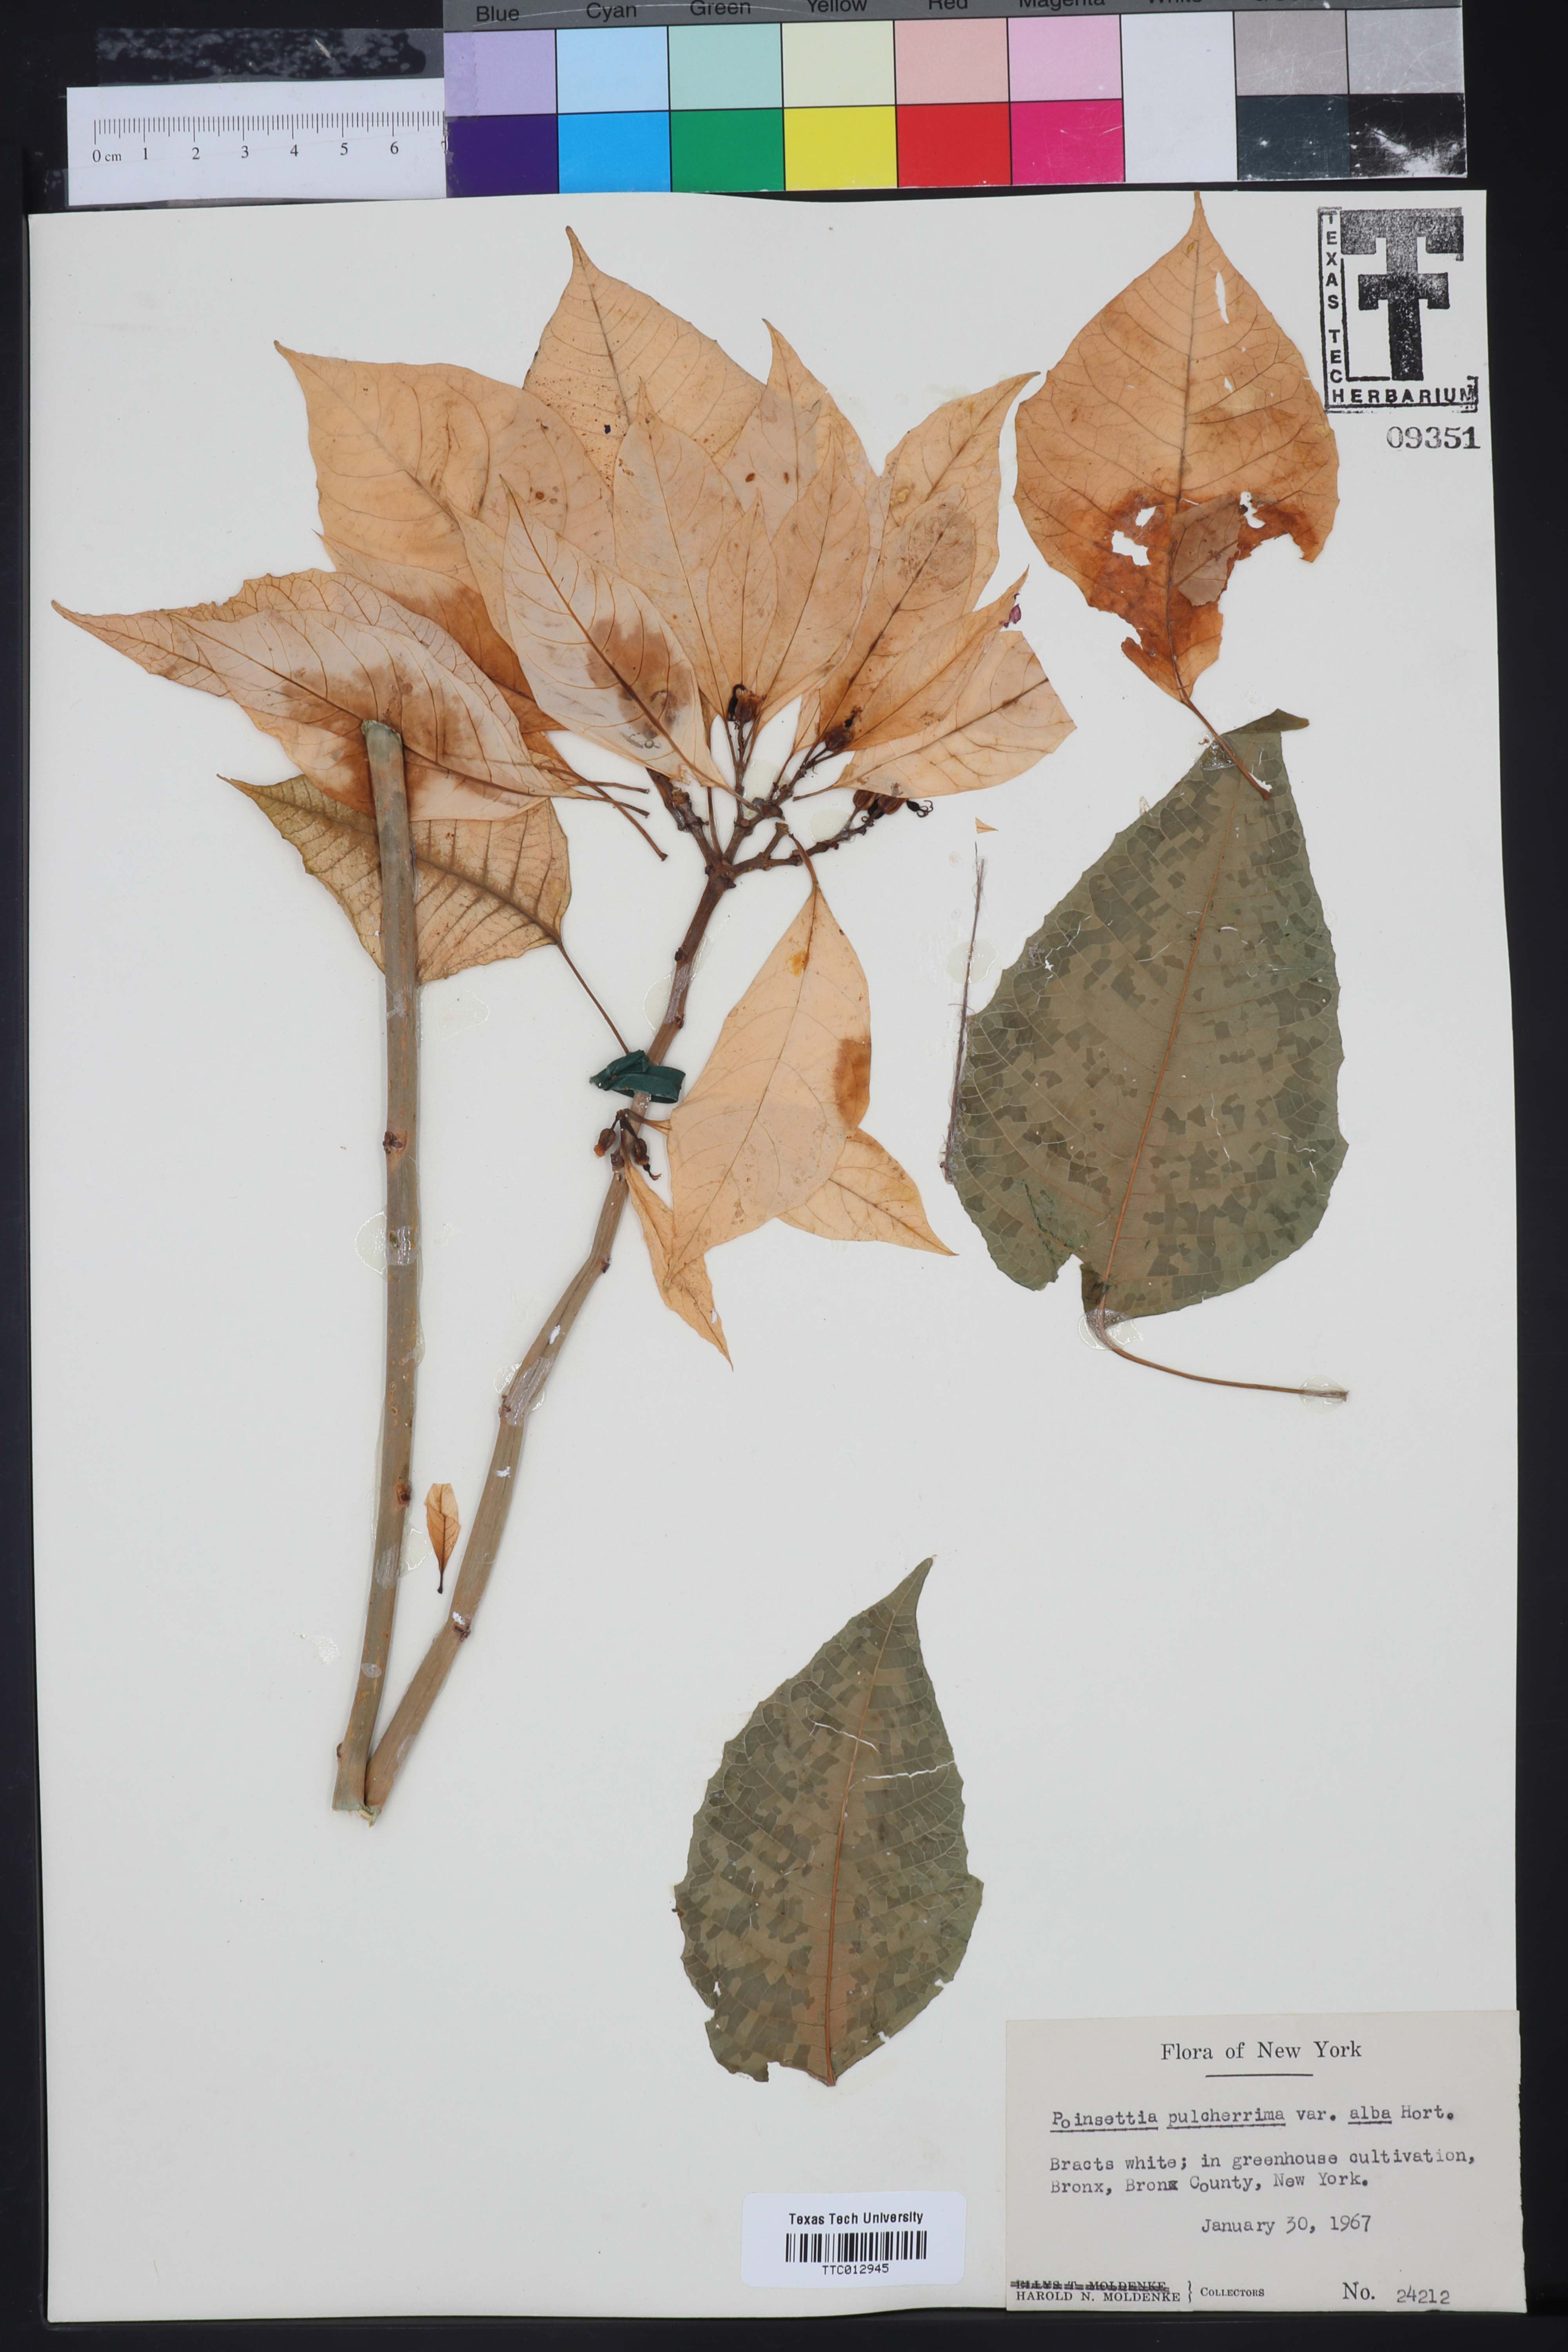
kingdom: Plantae
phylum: Tracheophyta
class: Magnoliopsida
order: Malpighiales
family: Euphorbiaceae
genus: Euphorbia
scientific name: Euphorbia pulcherrima
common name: Christmas-flower
